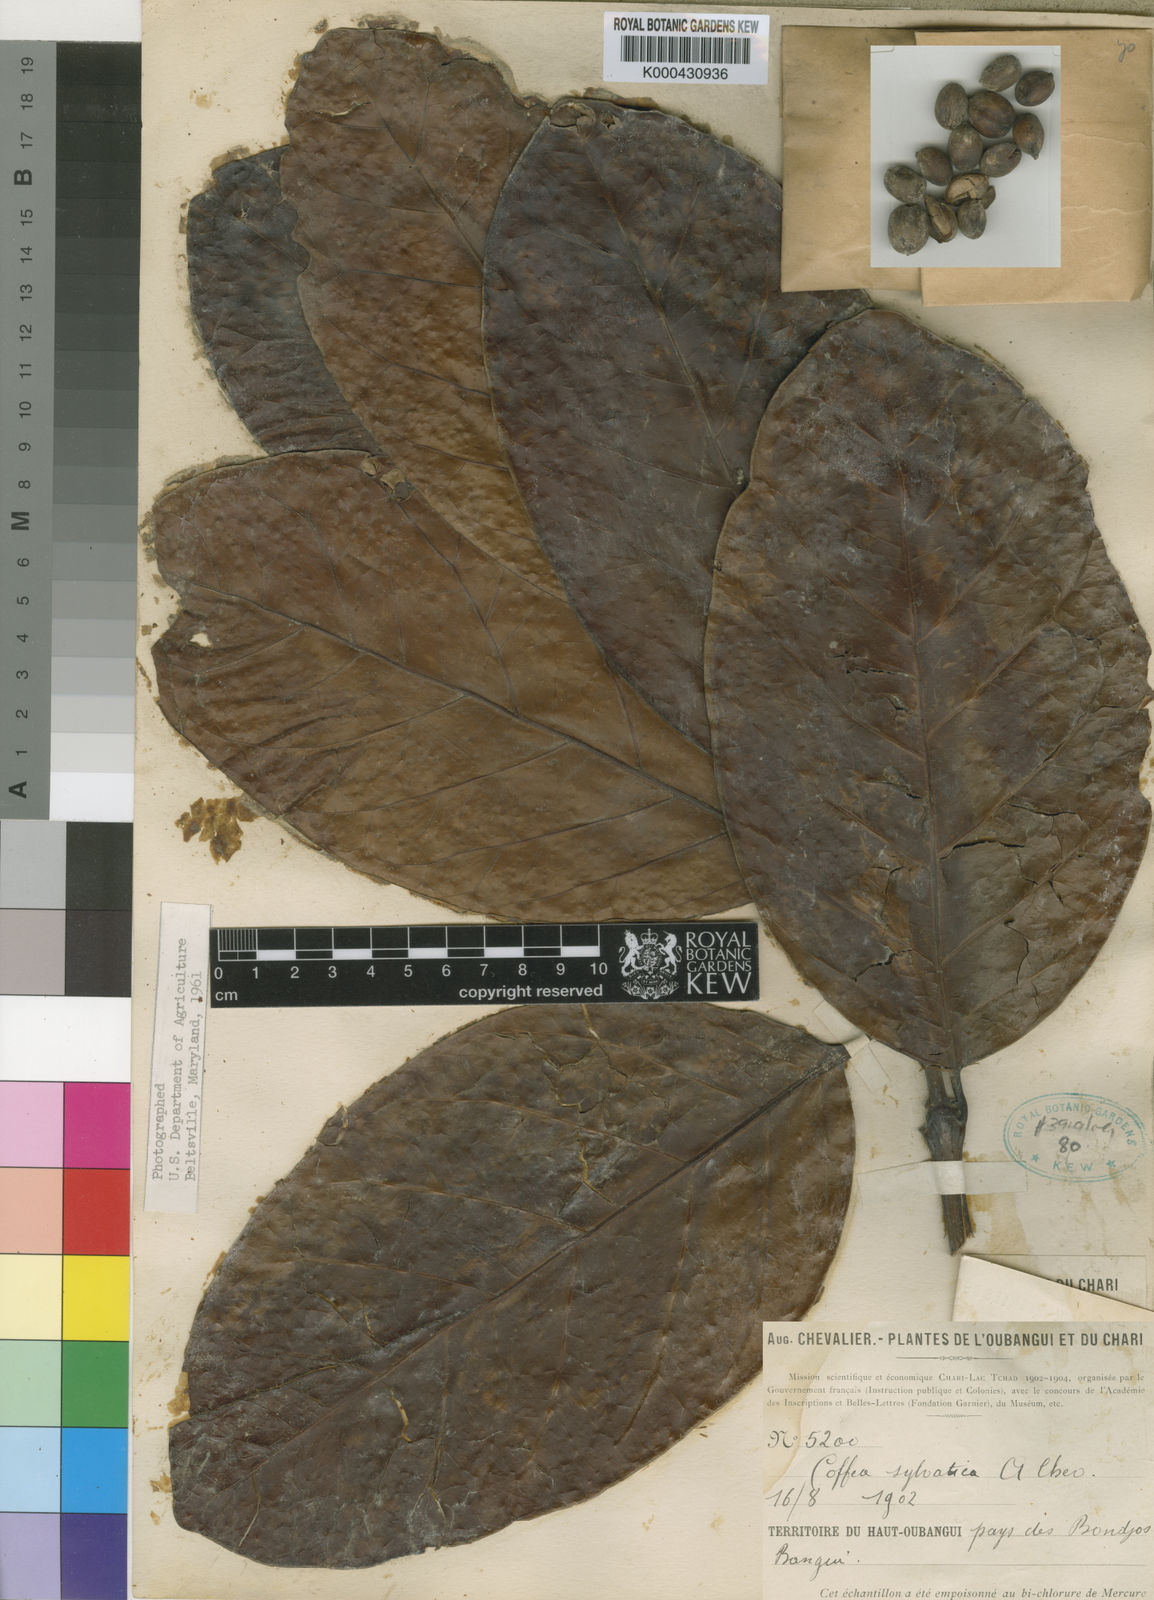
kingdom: Plantae
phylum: Tracheophyta
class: Magnoliopsida
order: Gentianales
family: Rubiaceae
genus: Coffea
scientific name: Coffea
